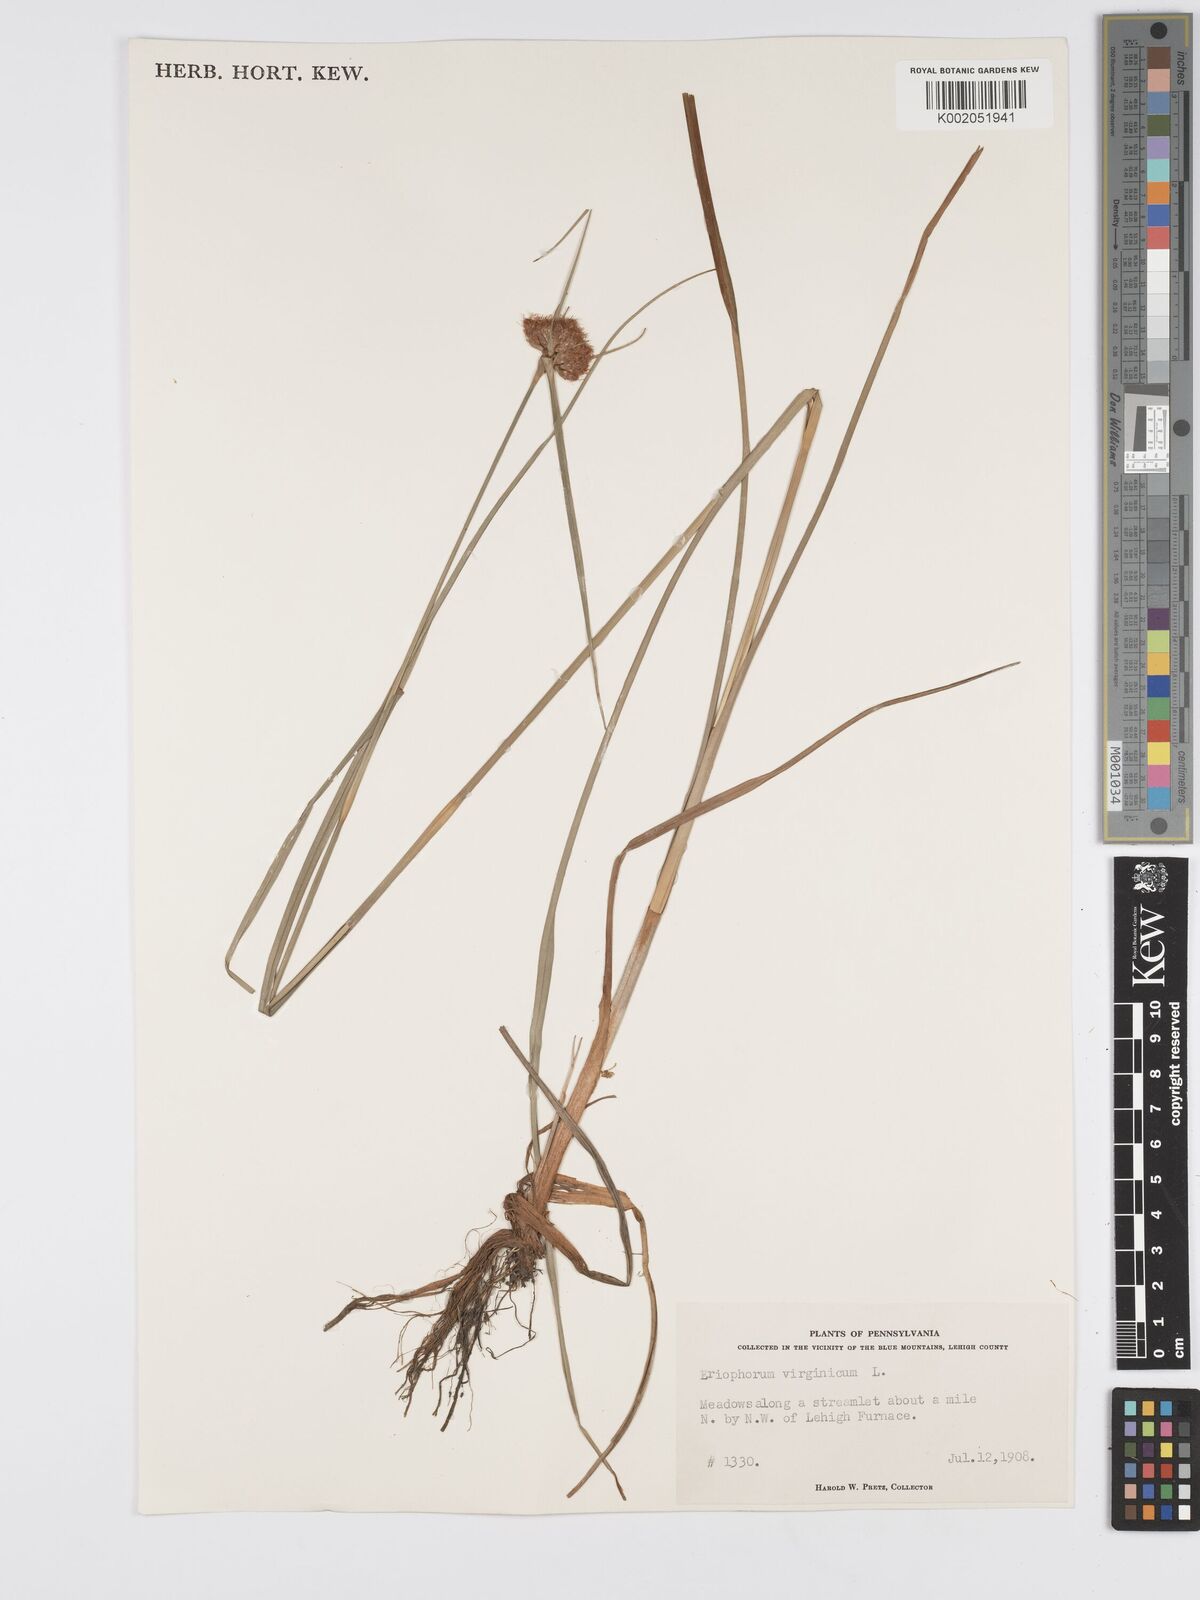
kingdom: Plantae
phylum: Tracheophyta
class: Liliopsida
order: Poales
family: Cyperaceae
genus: Eriophorum
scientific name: Eriophorum virginicum
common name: Tawny cottongrass
